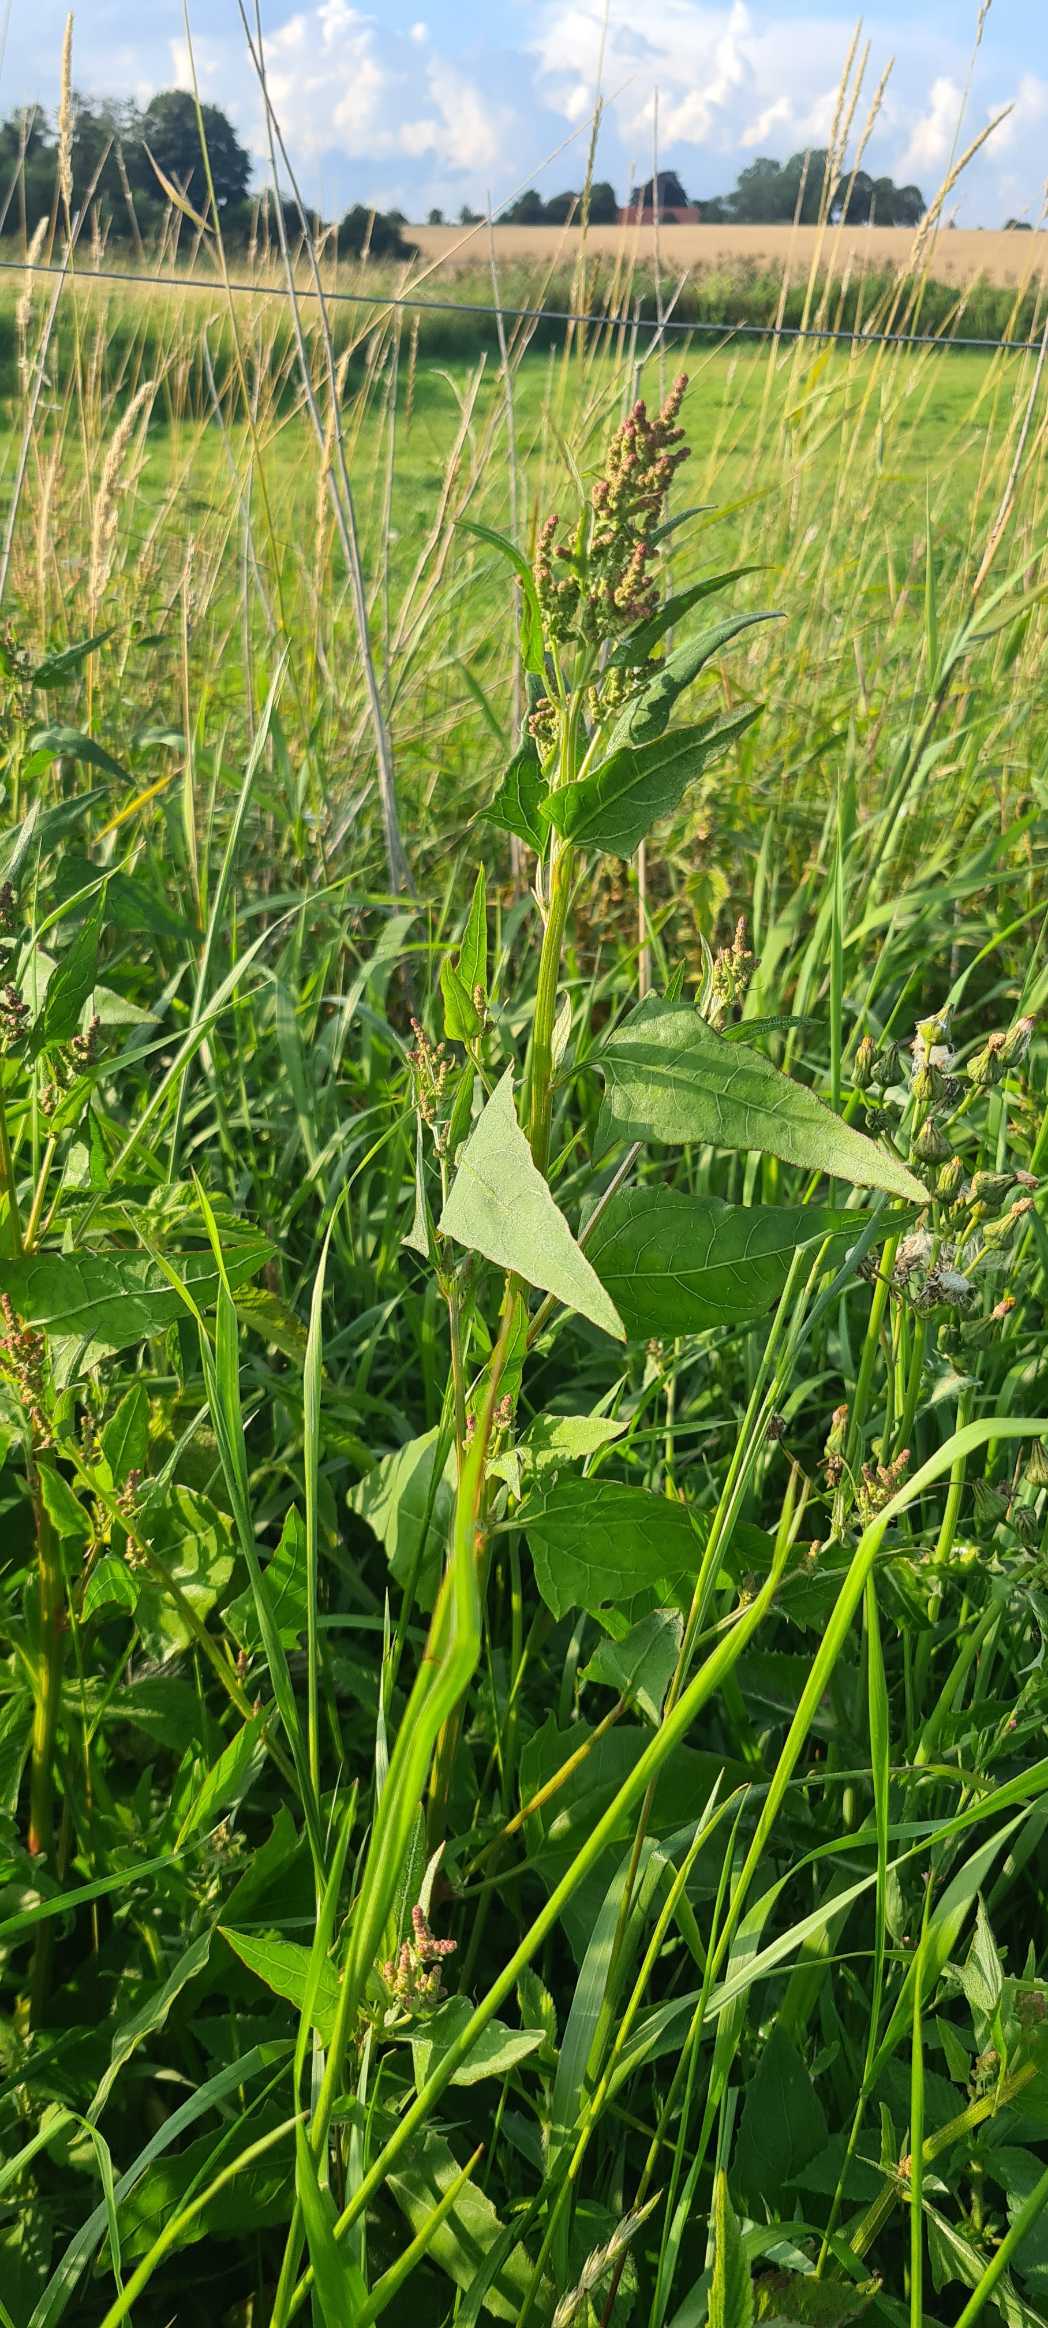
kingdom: Plantae
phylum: Tracheophyta
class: Magnoliopsida
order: Caryophyllales
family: Amaranthaceae
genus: Atriplex
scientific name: Atriplex prostrata
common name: Spyd-mælde
